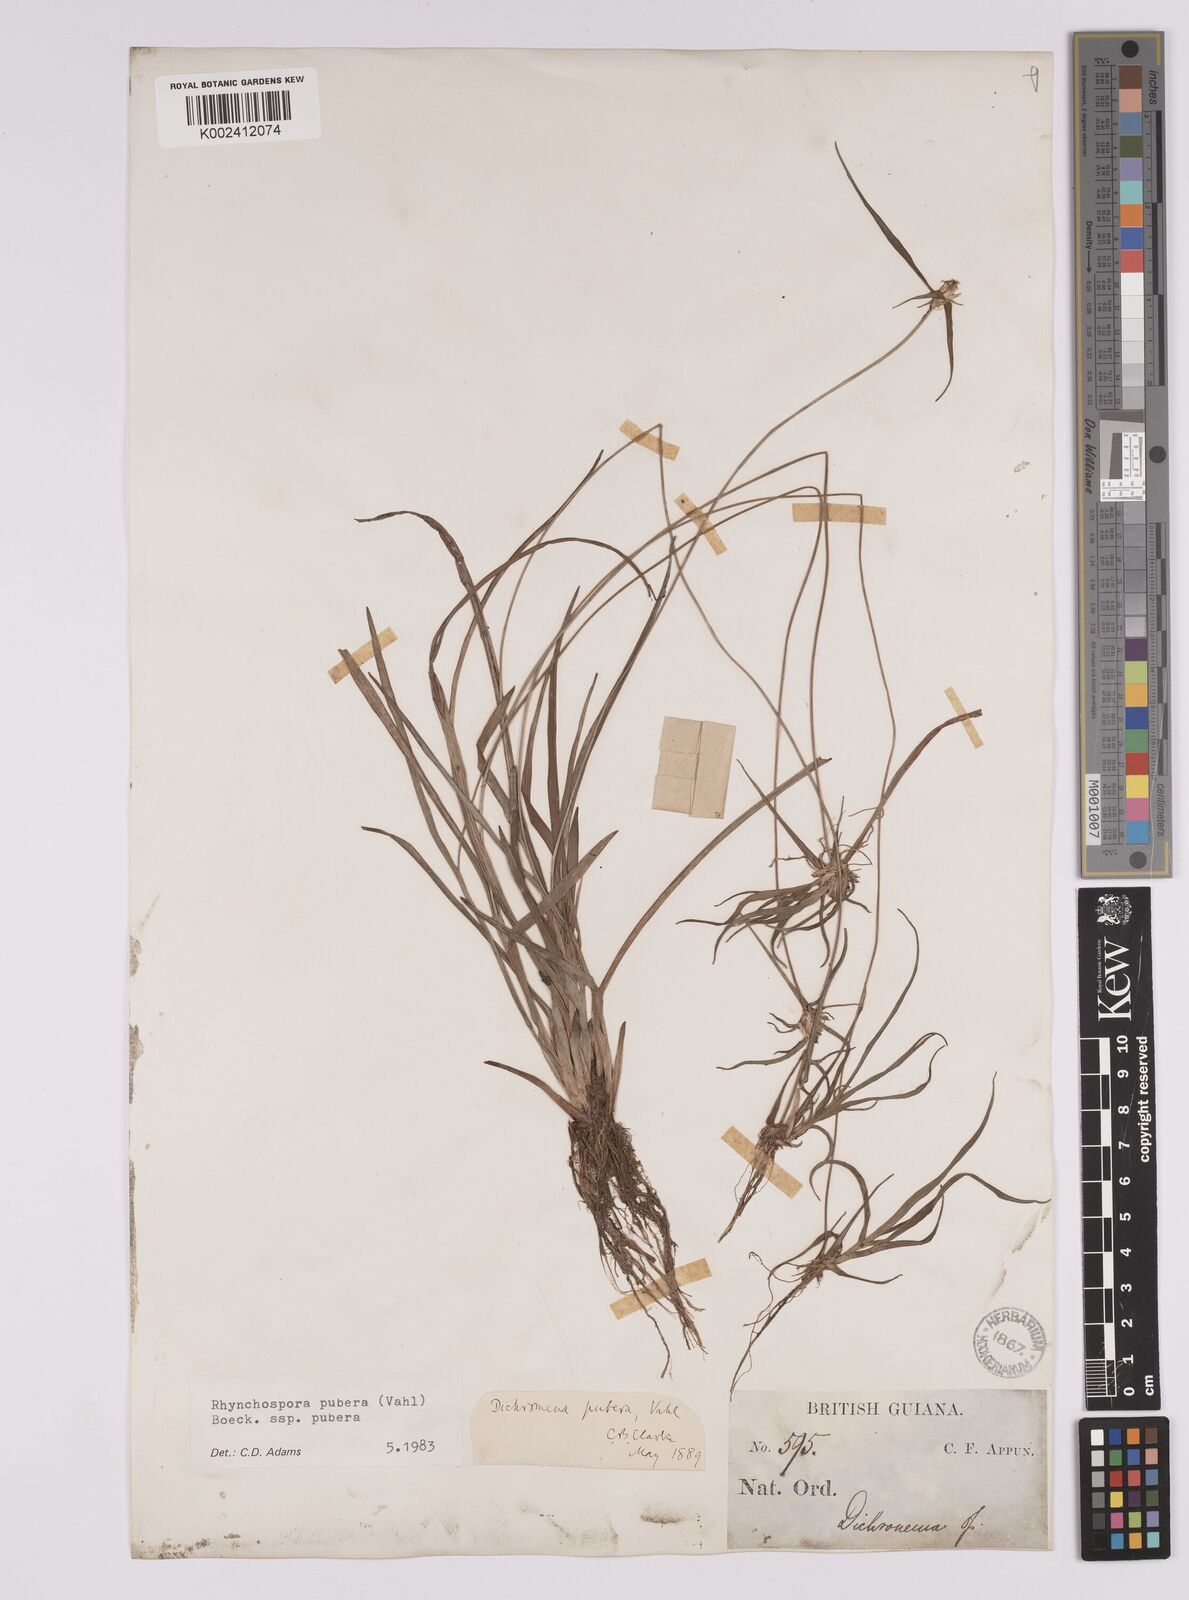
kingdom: Plantae
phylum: Tracheophyta
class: Liliopsida
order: Poales
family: Cyperaceae
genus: Rhynchospora
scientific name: Rhynchospora pubera
